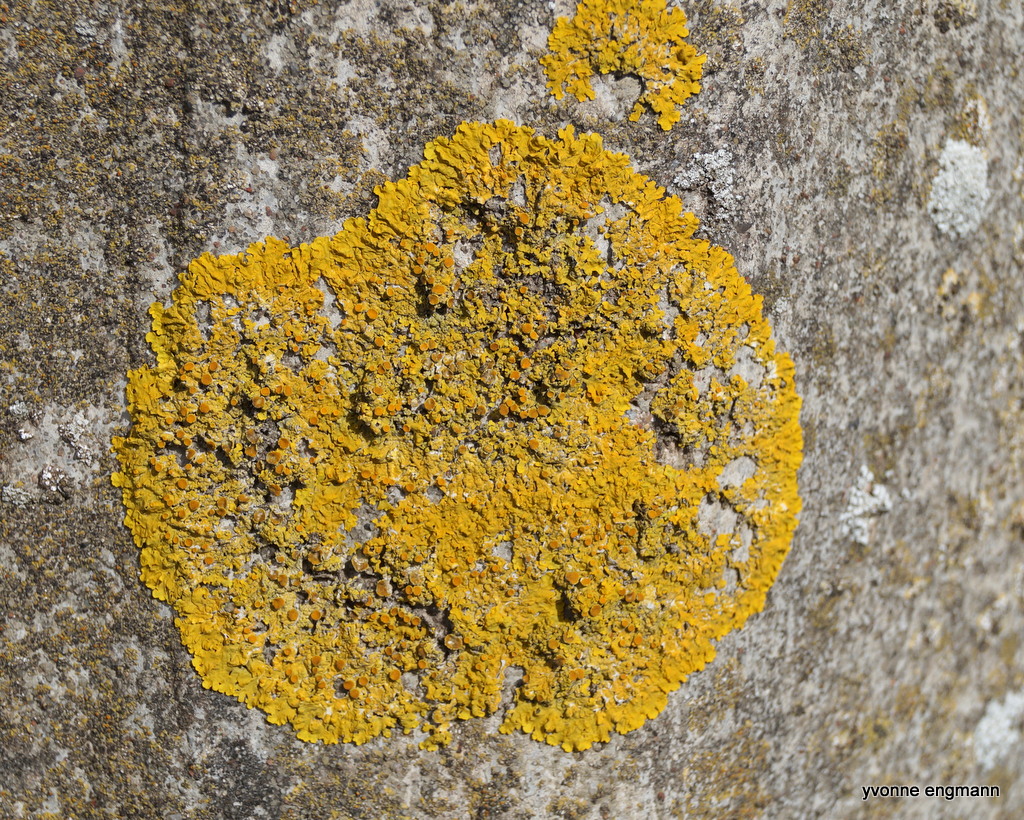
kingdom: Fungi
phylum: Ascomycota
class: Lecanoromycetes
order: Teloschistales
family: Teloschistaceae
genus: Xanthoria
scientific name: Xanthoria parietina
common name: almindelig væggelav
